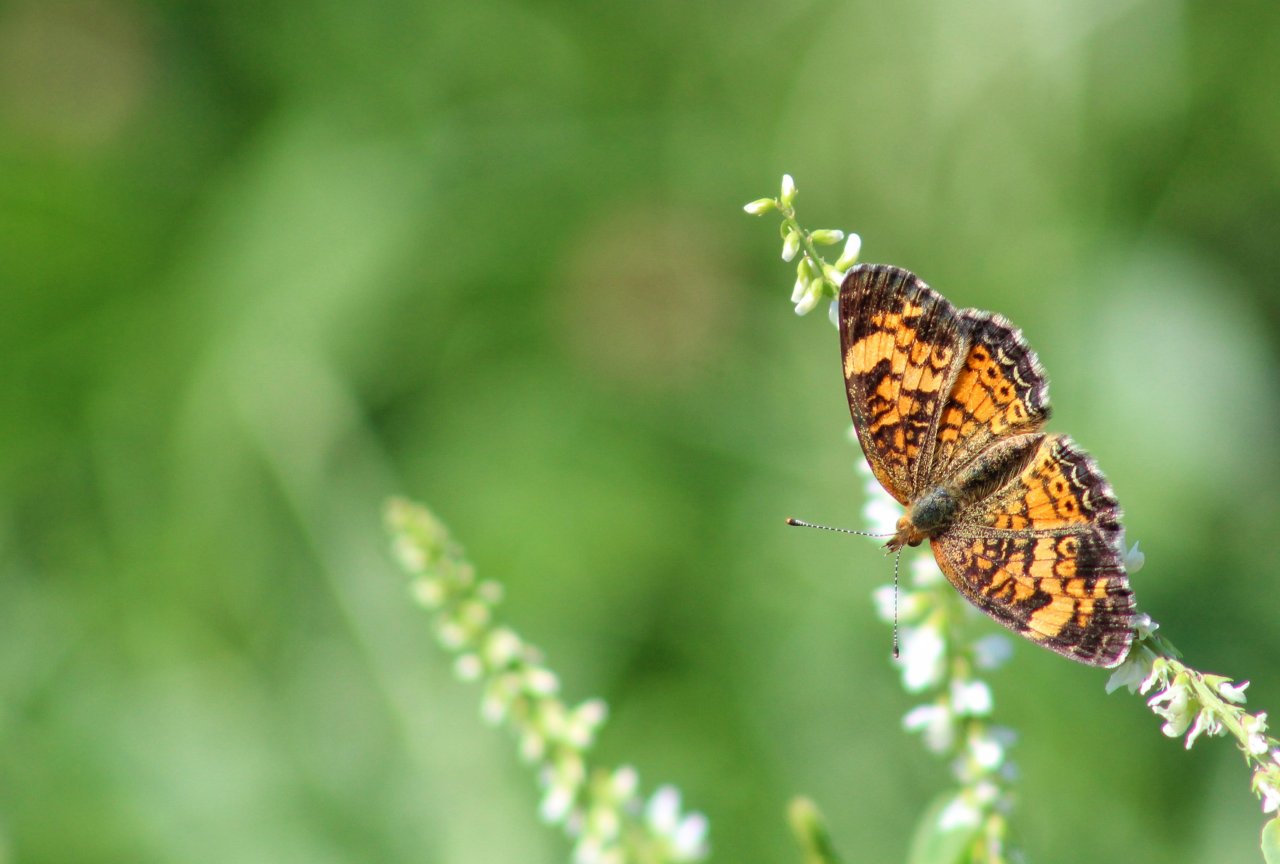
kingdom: Animalia
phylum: Arthropoda
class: Insecta
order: Lepidoptera
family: Nymphalidae
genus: Phyciodes
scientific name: Phyciodes tharos
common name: Pearl Crescent
